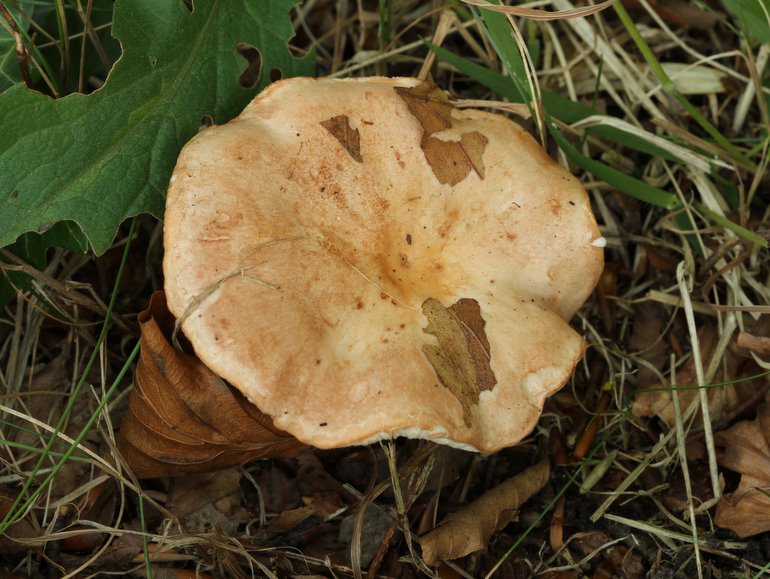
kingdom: Fungi
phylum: Basidiomycota
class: Agaricomycetes
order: Russulales
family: Russulaceae
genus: Lactarius
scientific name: Lactarius pallidus
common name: bleg mælkehat
